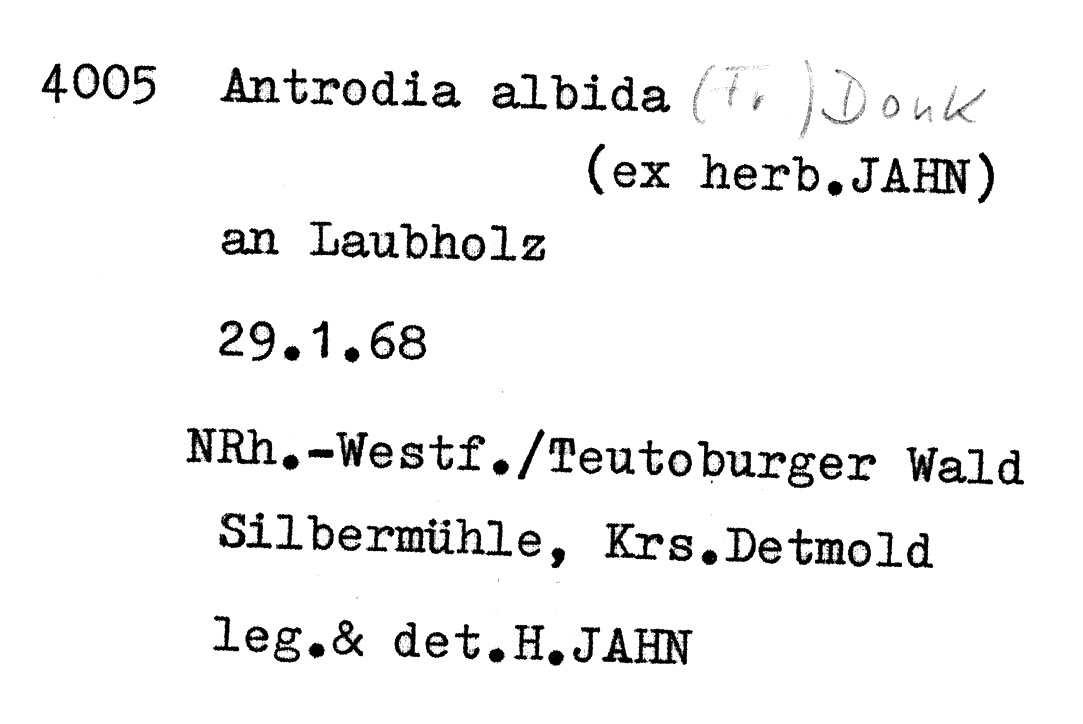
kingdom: Fungi
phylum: Basidiomycota
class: Agaricomycetes
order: Polyporales
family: Fomitopsidaceae
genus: Antrodia
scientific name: Antrodia albida
